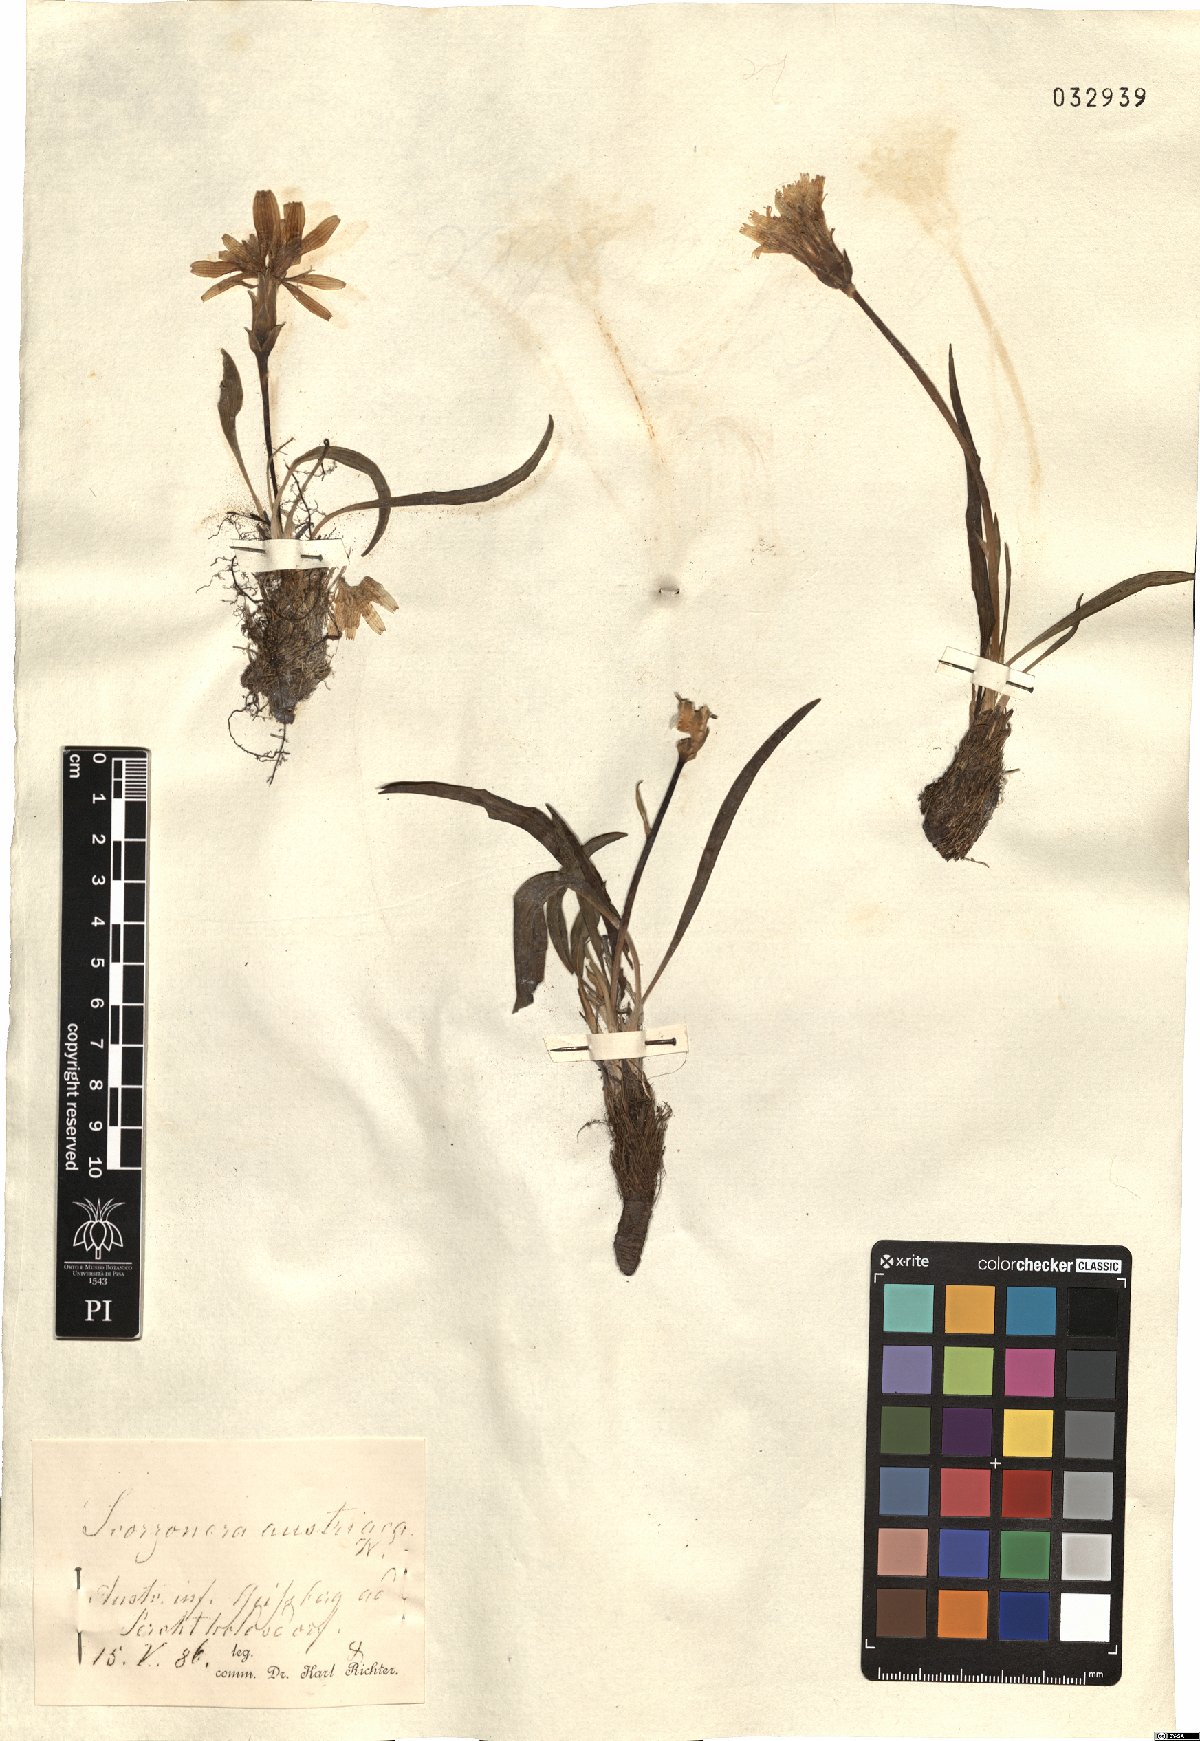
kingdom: Plantae
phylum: Tracheophyta
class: Magnoliopsida
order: Asterales
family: Asteraceae
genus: Takhtajaniantha
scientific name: Takhtajaniantha austriaca
